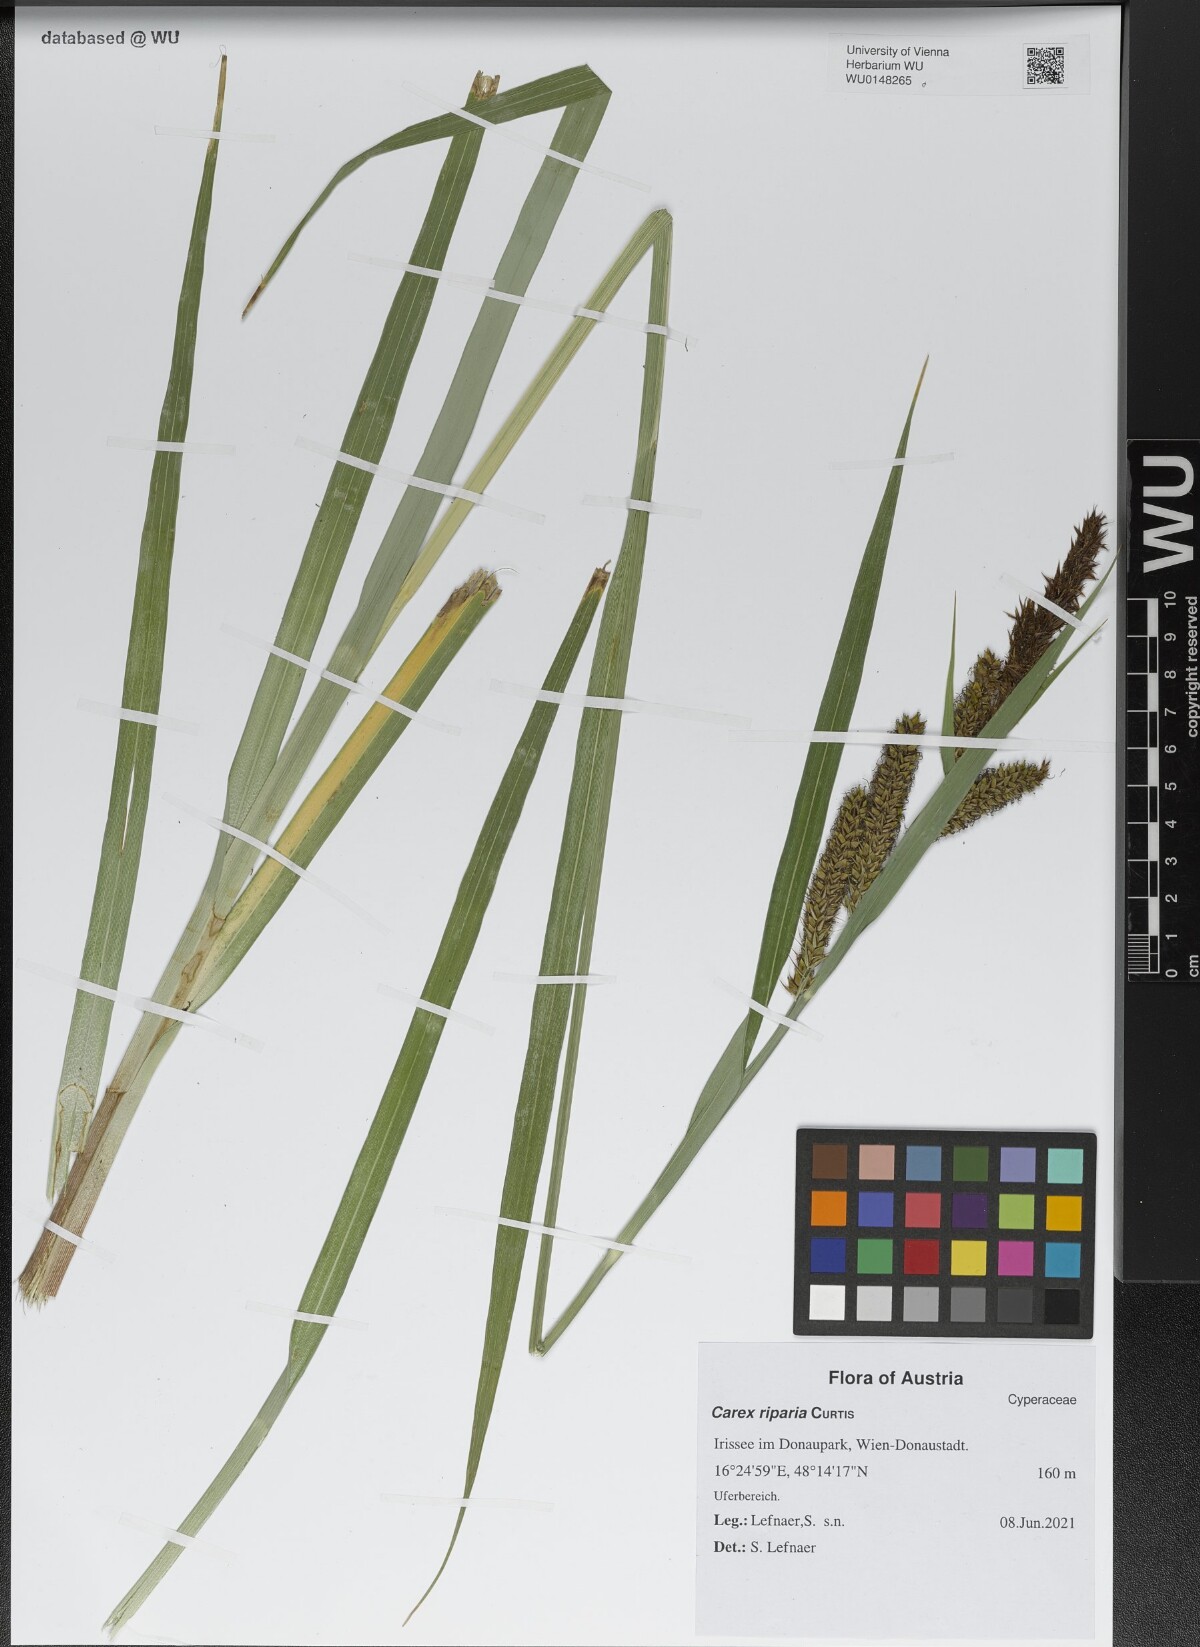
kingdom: Plantae
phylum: Tracheophyta
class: Liliopsida
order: Poales
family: Cyperaceae
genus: Carex
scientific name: Carex riparia
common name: Greater pond-sedge
